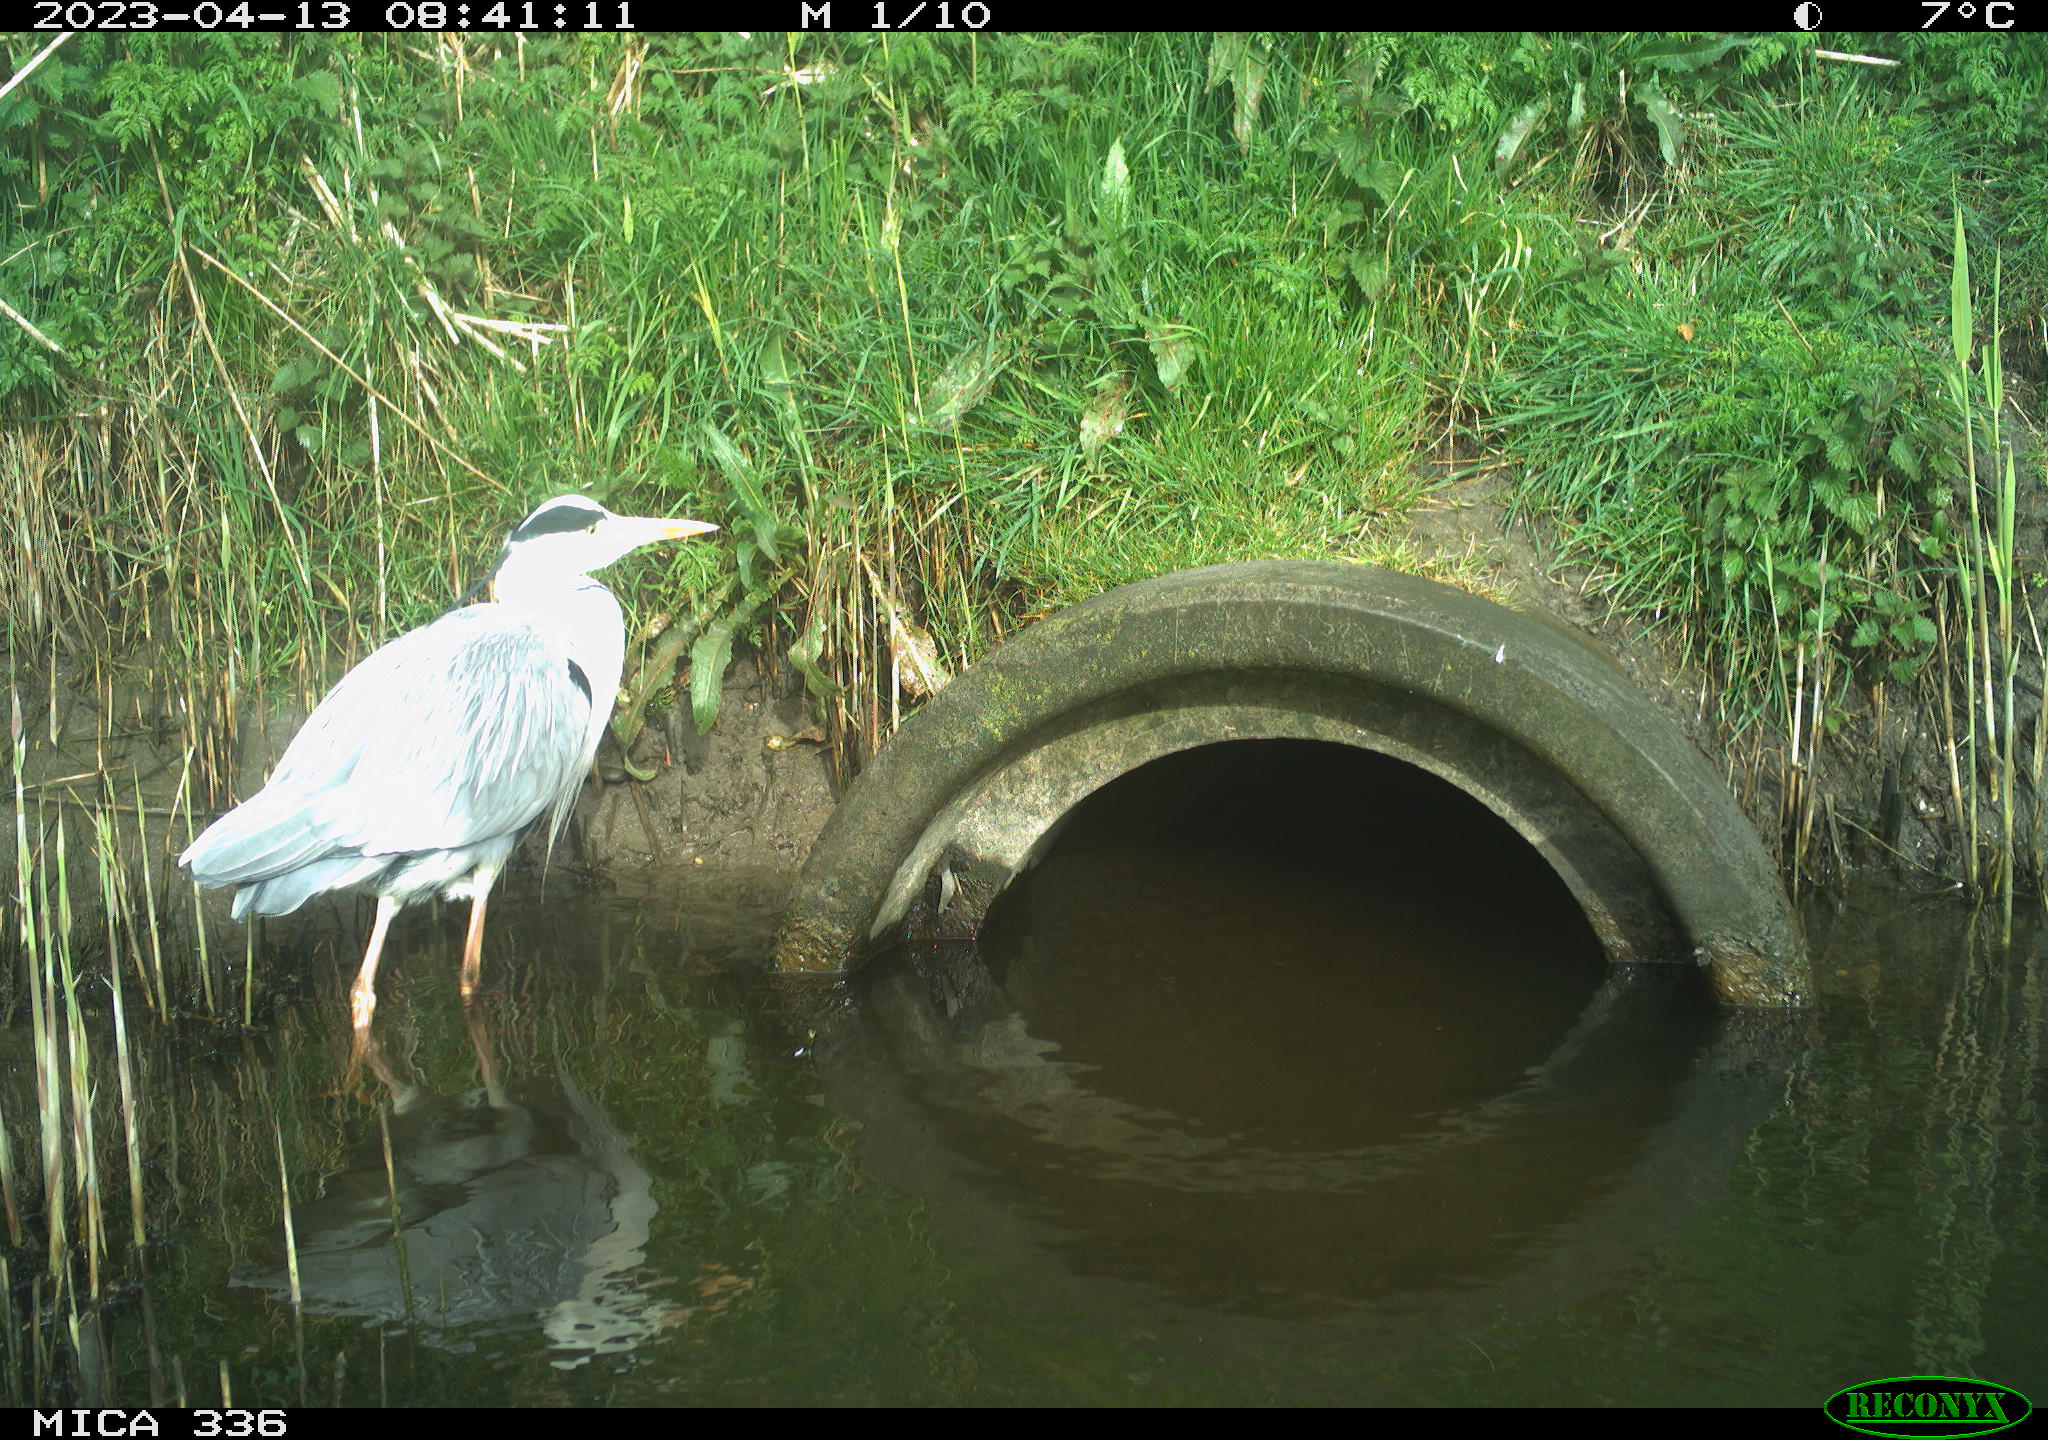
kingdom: Animalia
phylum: Chordata
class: Aves
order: Pelecaniformes
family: Ardeidae
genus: Ardea
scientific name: Ardea
